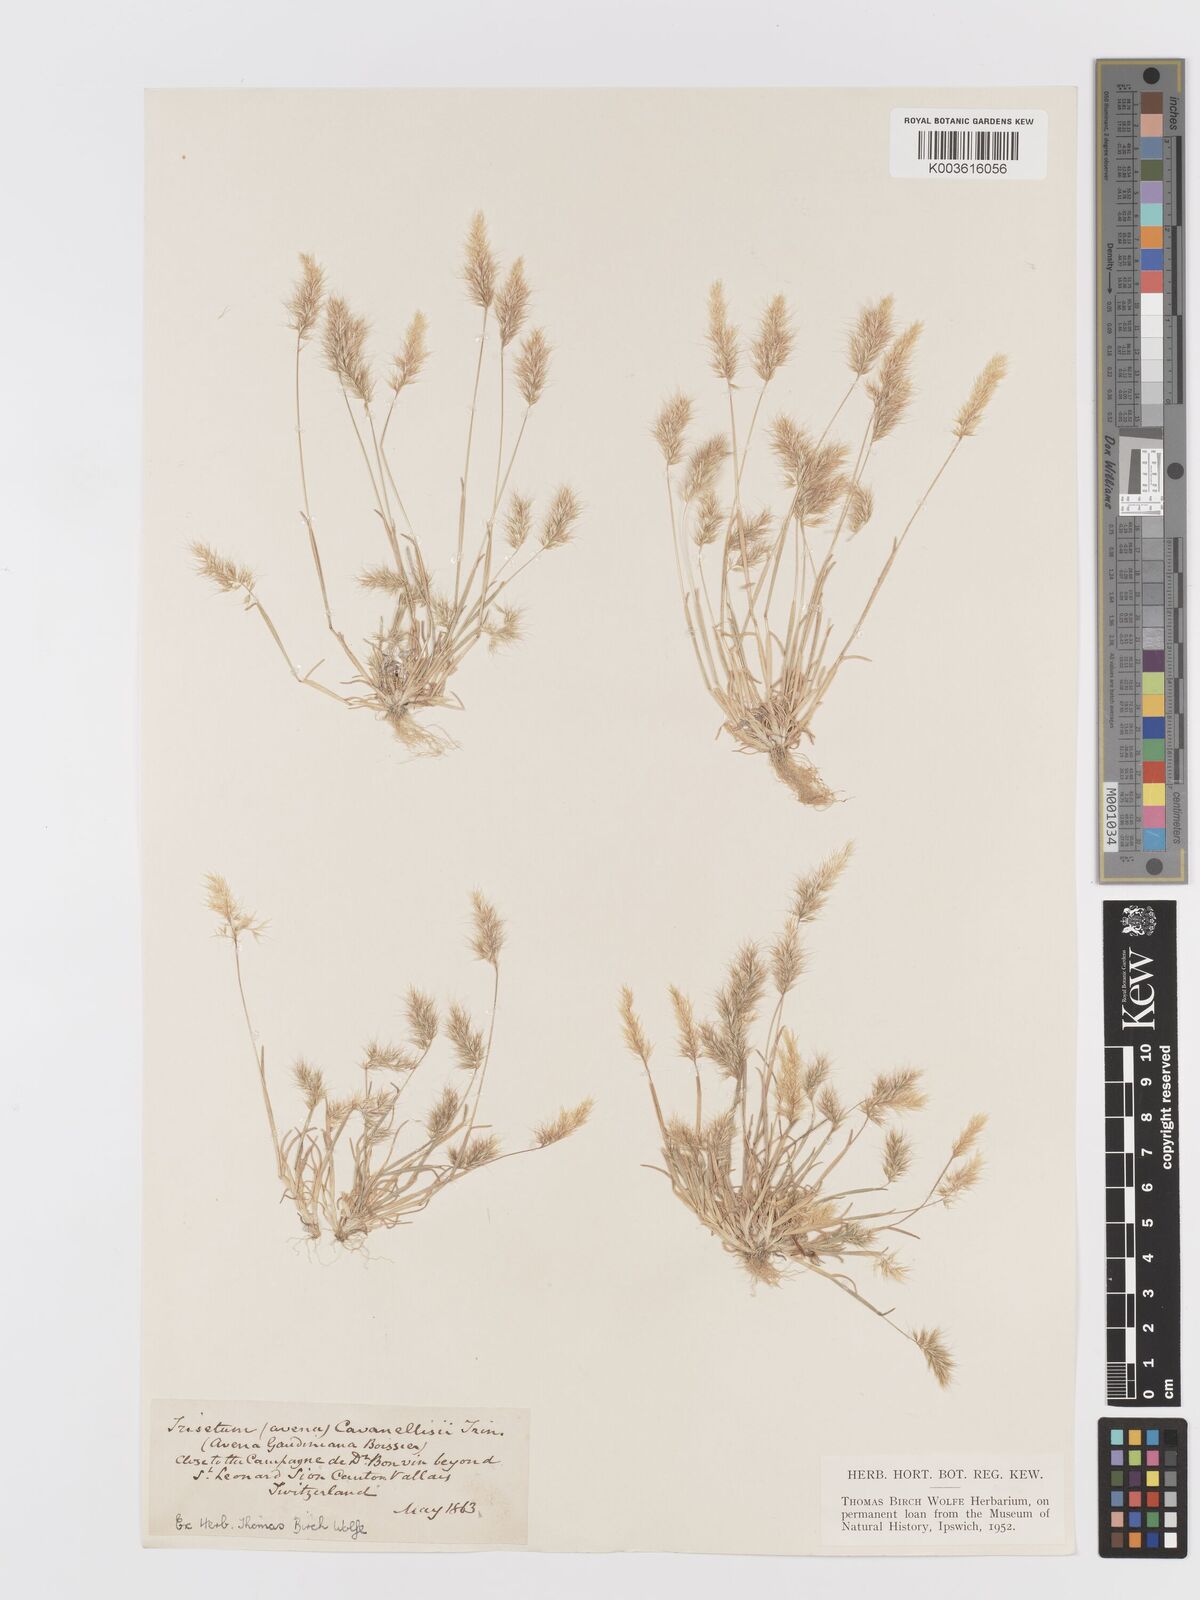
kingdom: Plantae
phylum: Tracheophyta
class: Liliopsida
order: Poales
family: Poaceae
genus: Trisetaria
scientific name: Trisetaria loeflingiana
